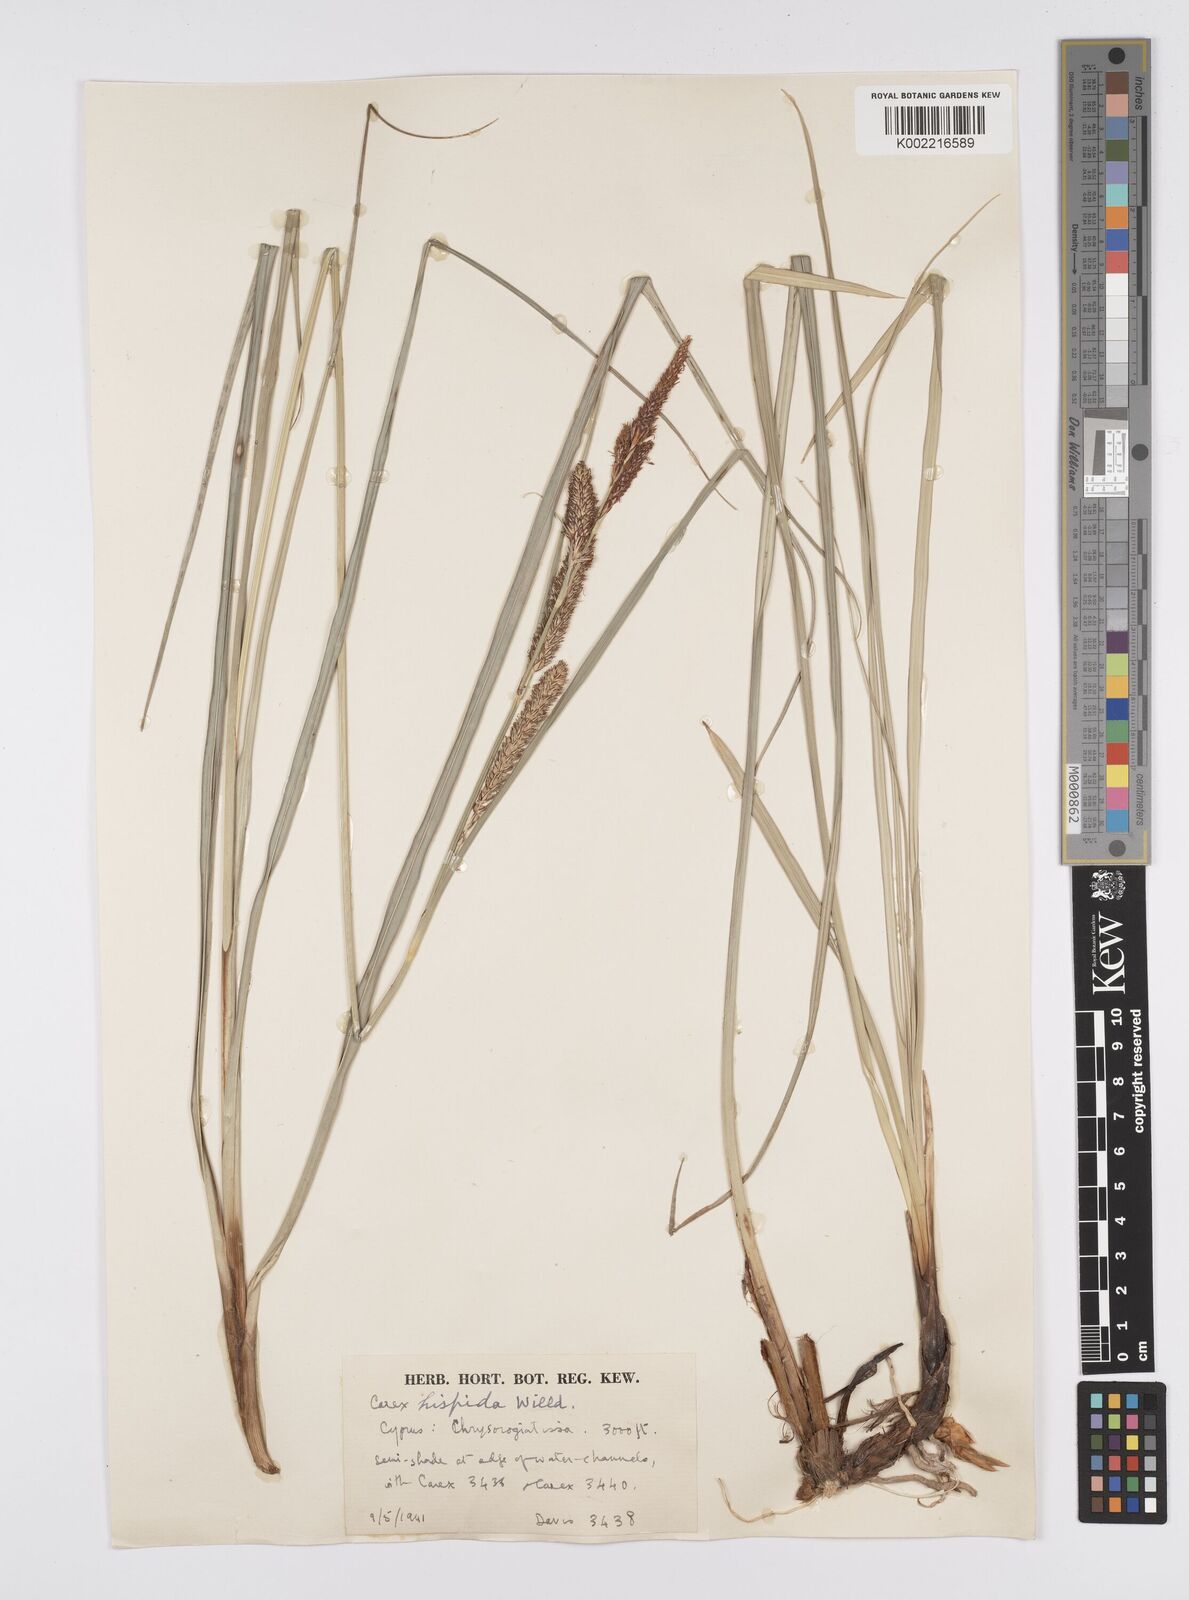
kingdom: Plantae
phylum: Tracheophyta
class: Liliopsida
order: Poales
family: Cyperaceae
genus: Carex
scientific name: Carex hispida
